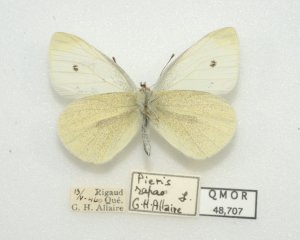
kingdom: Animalia
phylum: Arthropoda
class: Insecta
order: Lepidoptera
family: Pieridae
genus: Pieris
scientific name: Pieris rapae
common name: Cabbage White
